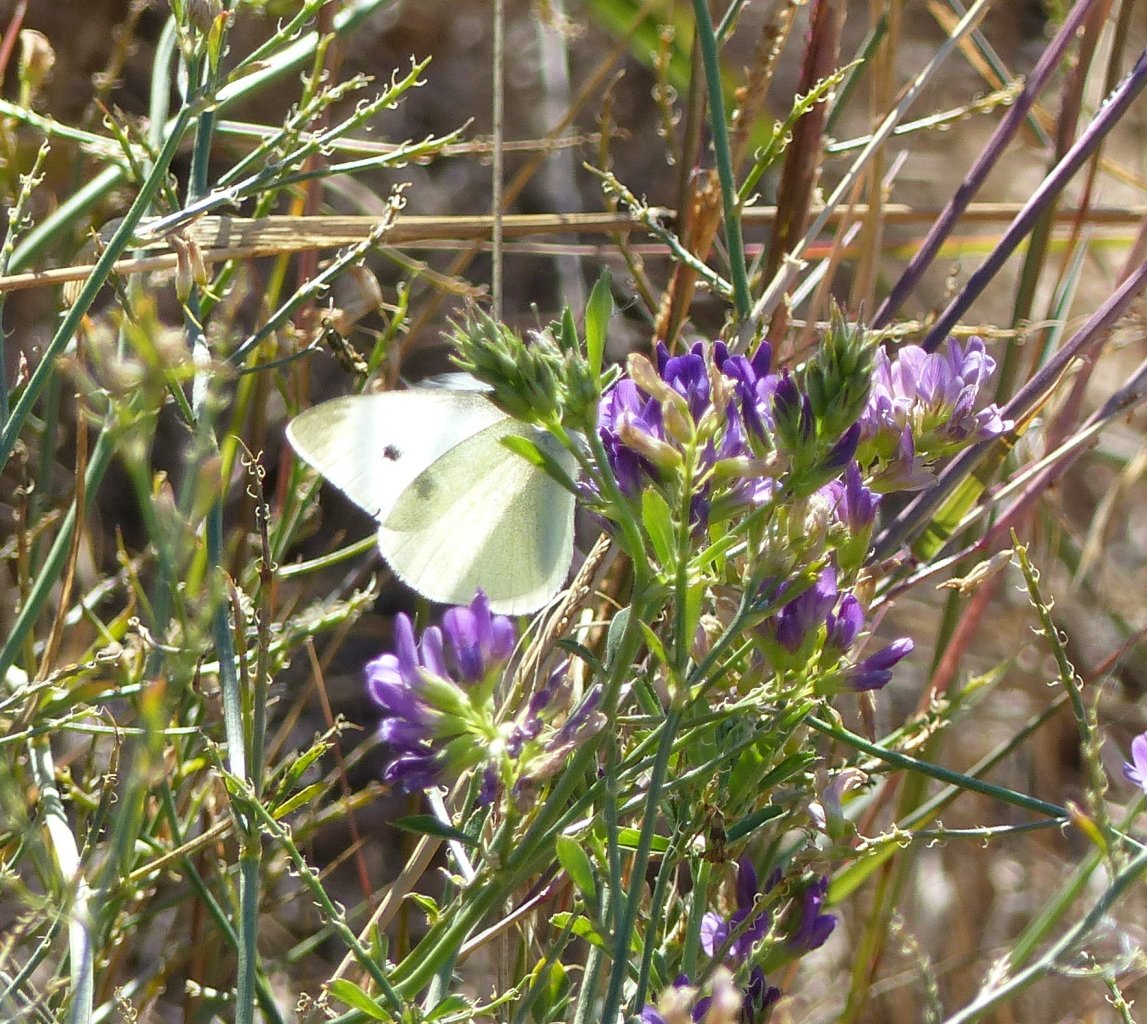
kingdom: Animalia
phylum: Arthropoda
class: Insecta
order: Lepidoptera
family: Pieridae
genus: Pieris
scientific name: Pieris rapae
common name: Cabbage White
